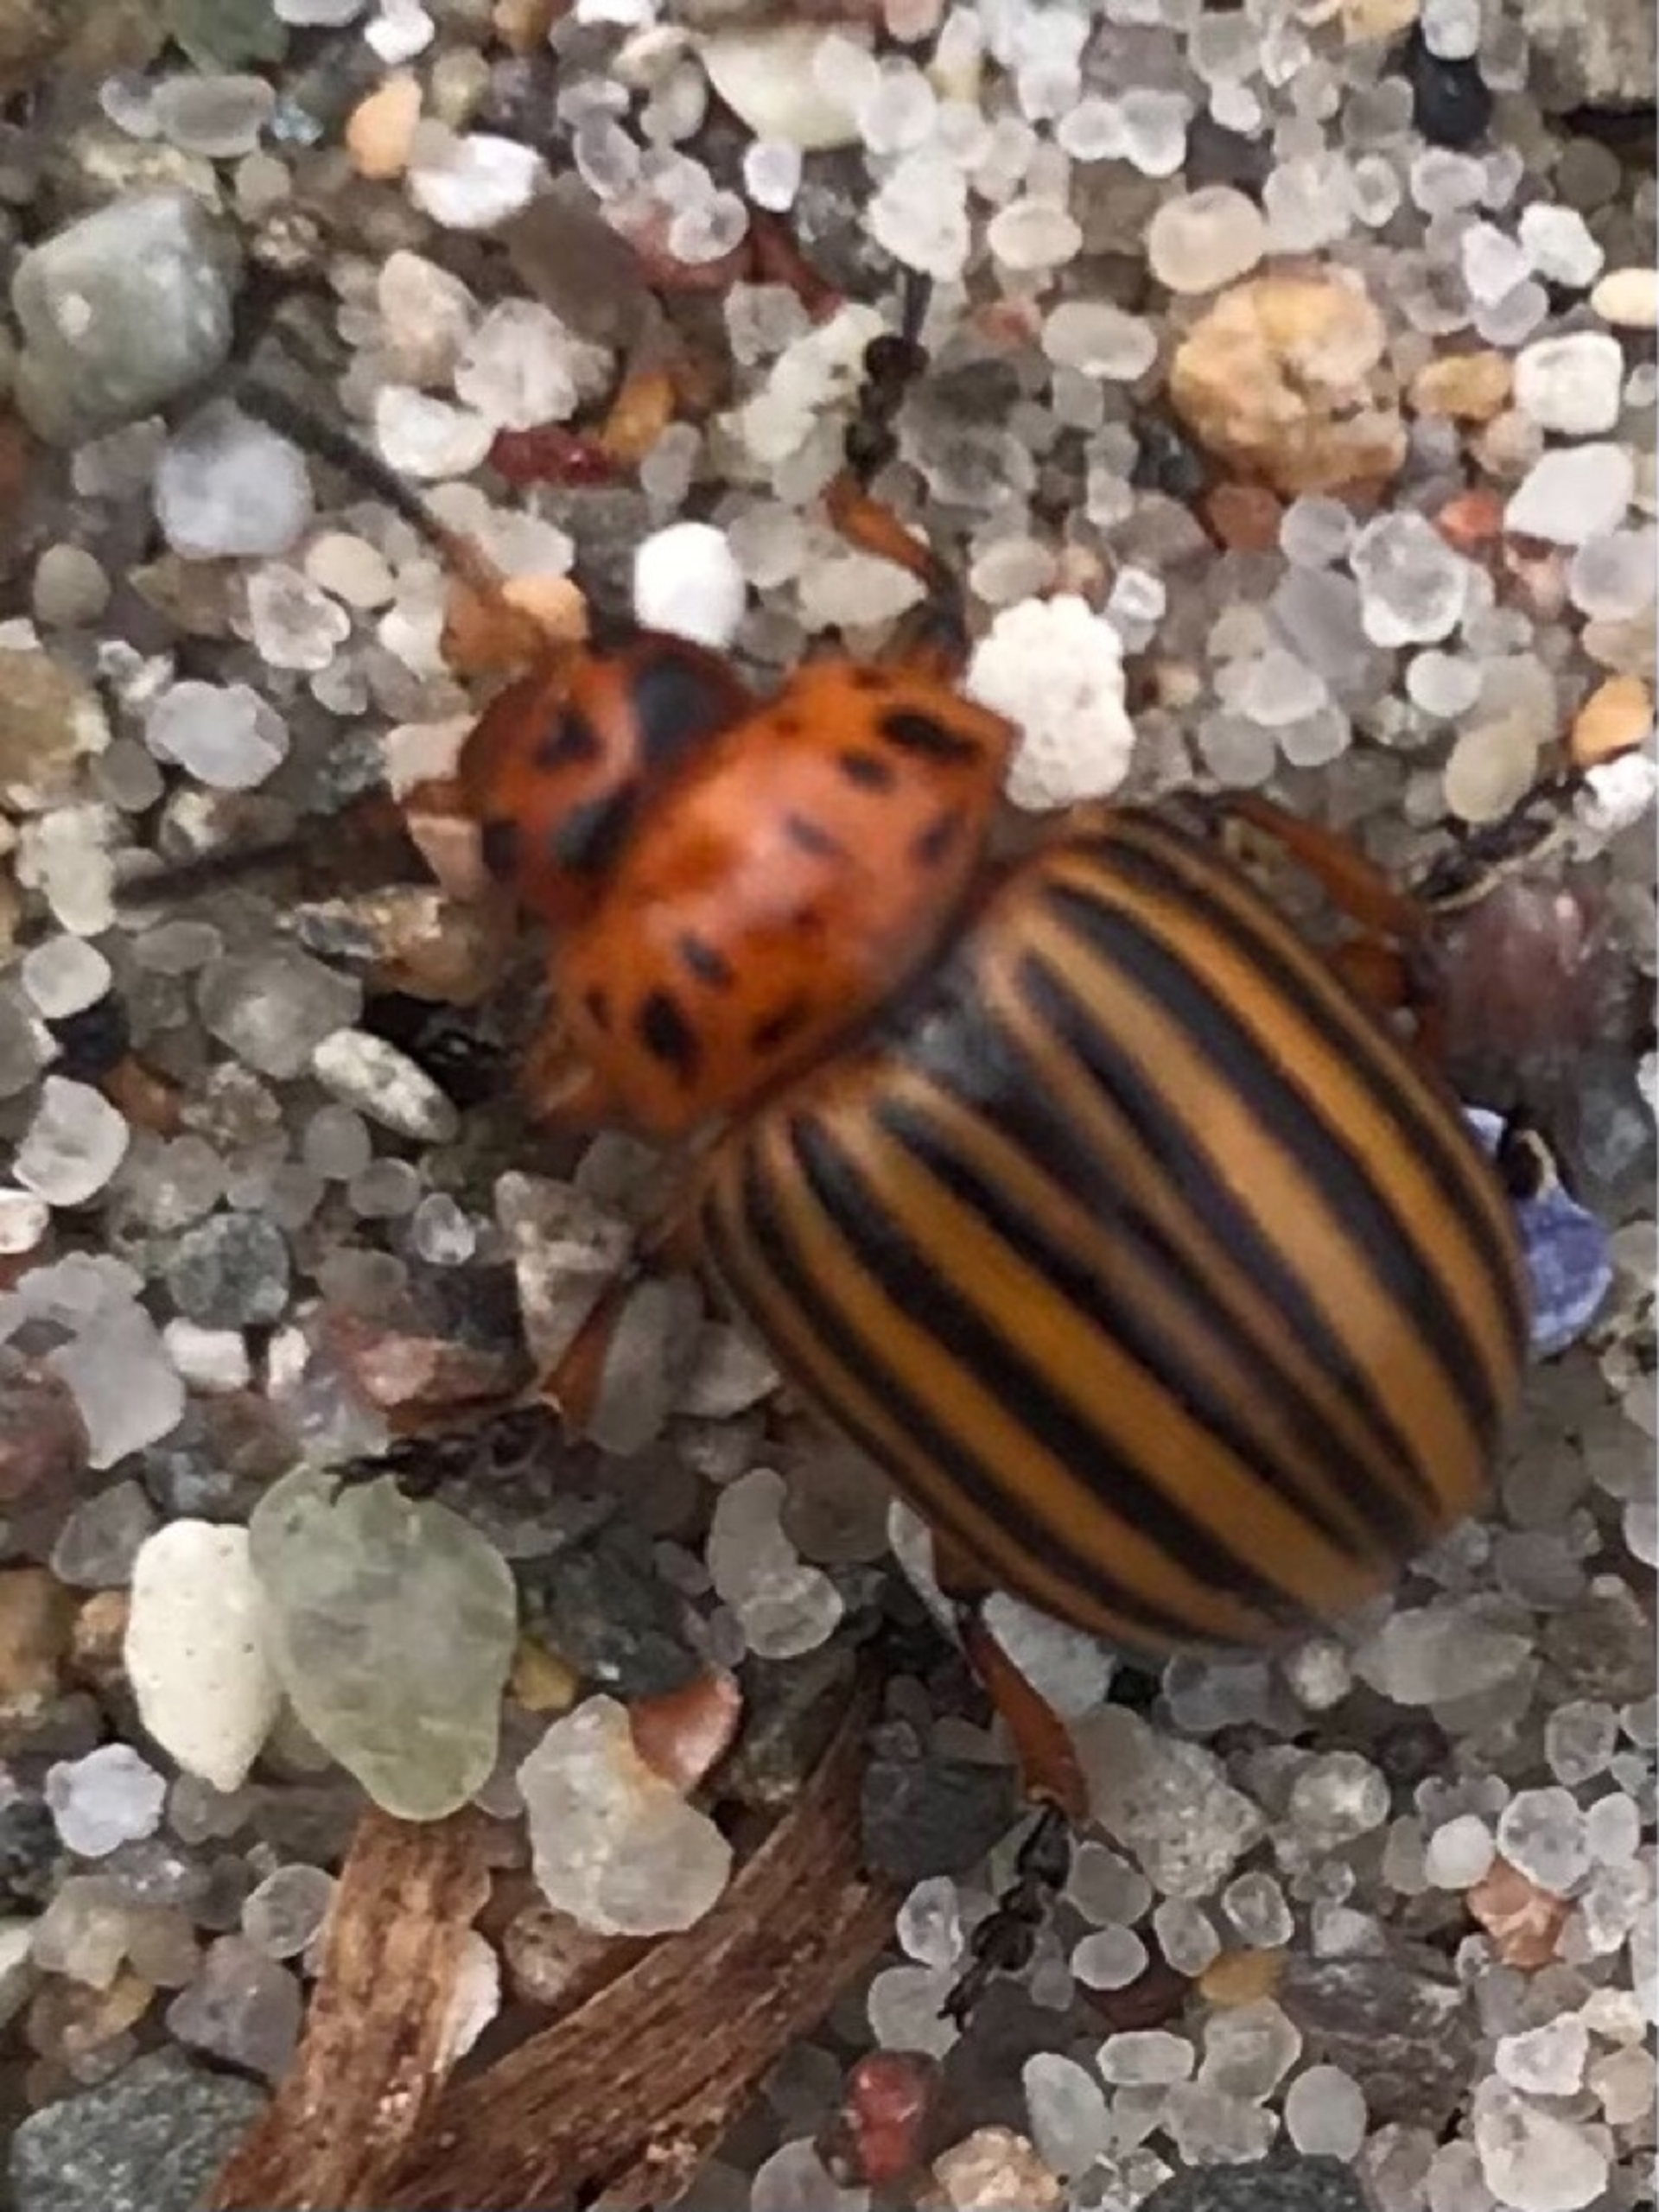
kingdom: Animalia
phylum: Arthropoda
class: Insecta
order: Coleoptera
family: Chrysomelidae
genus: Leptinotarsa
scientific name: Leptinotarsa decemlineata
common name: Coloradobille
